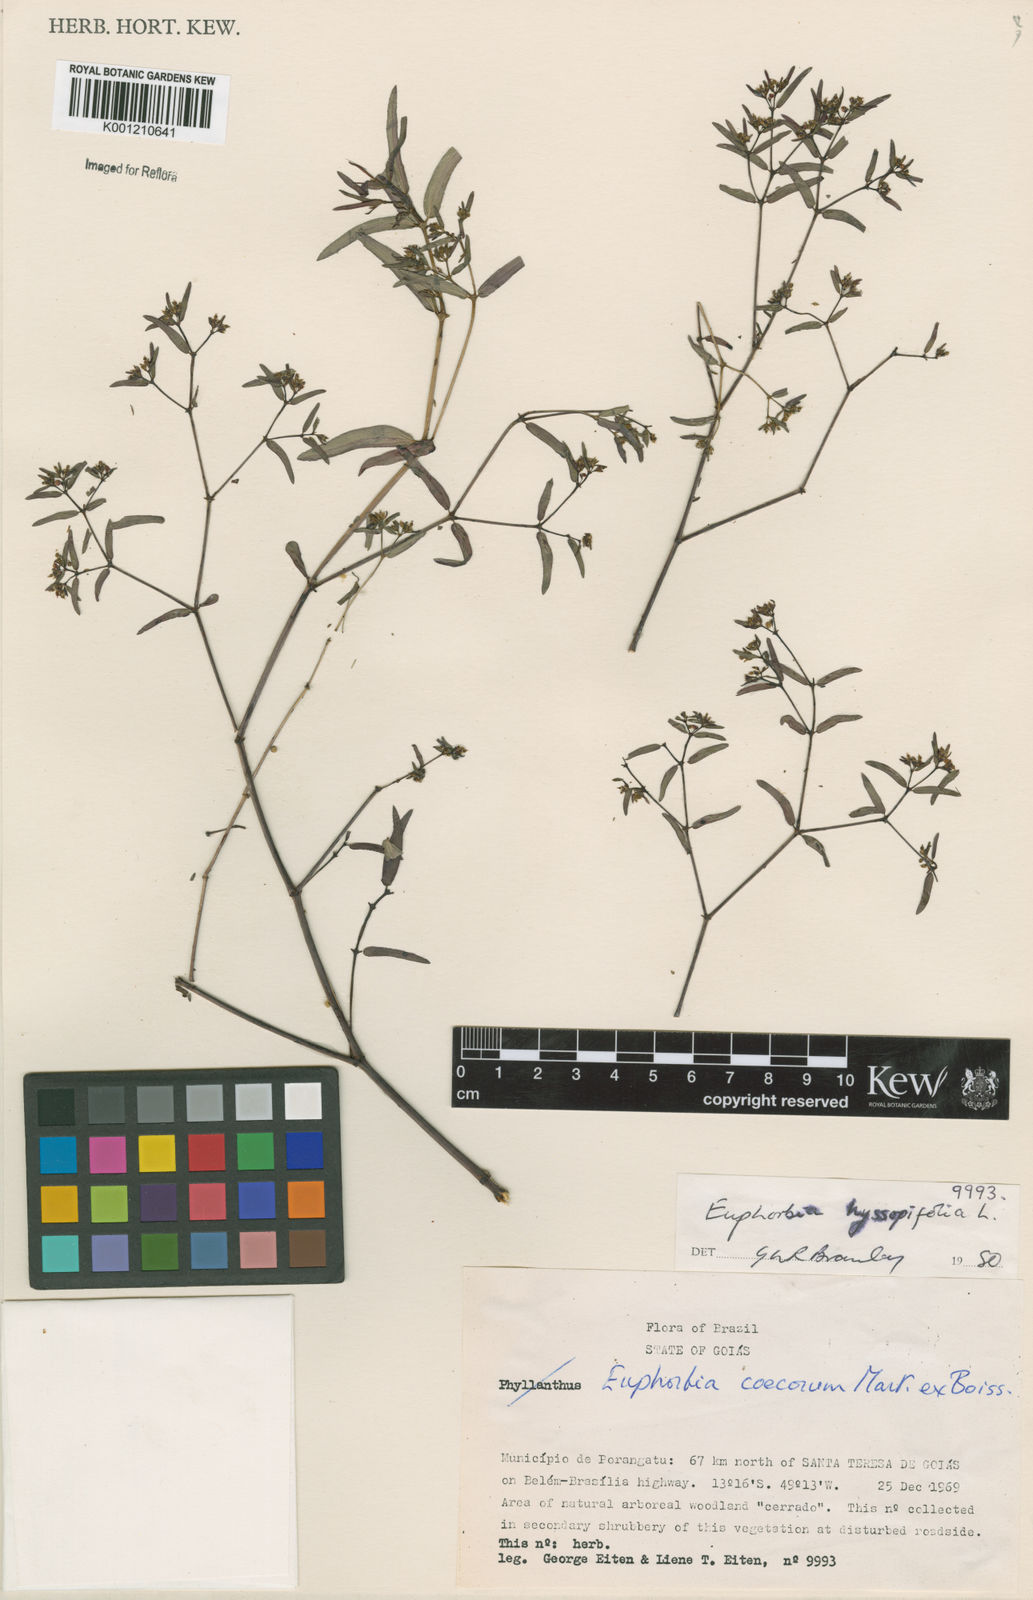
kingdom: Plantae
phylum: Tracheophyta
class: Magnoliopsida
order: Malpighiales
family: Euphorbiaceae
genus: Euphorbia
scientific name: Euphorbia hyssopifolia
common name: Hyssopleaf sandmat
